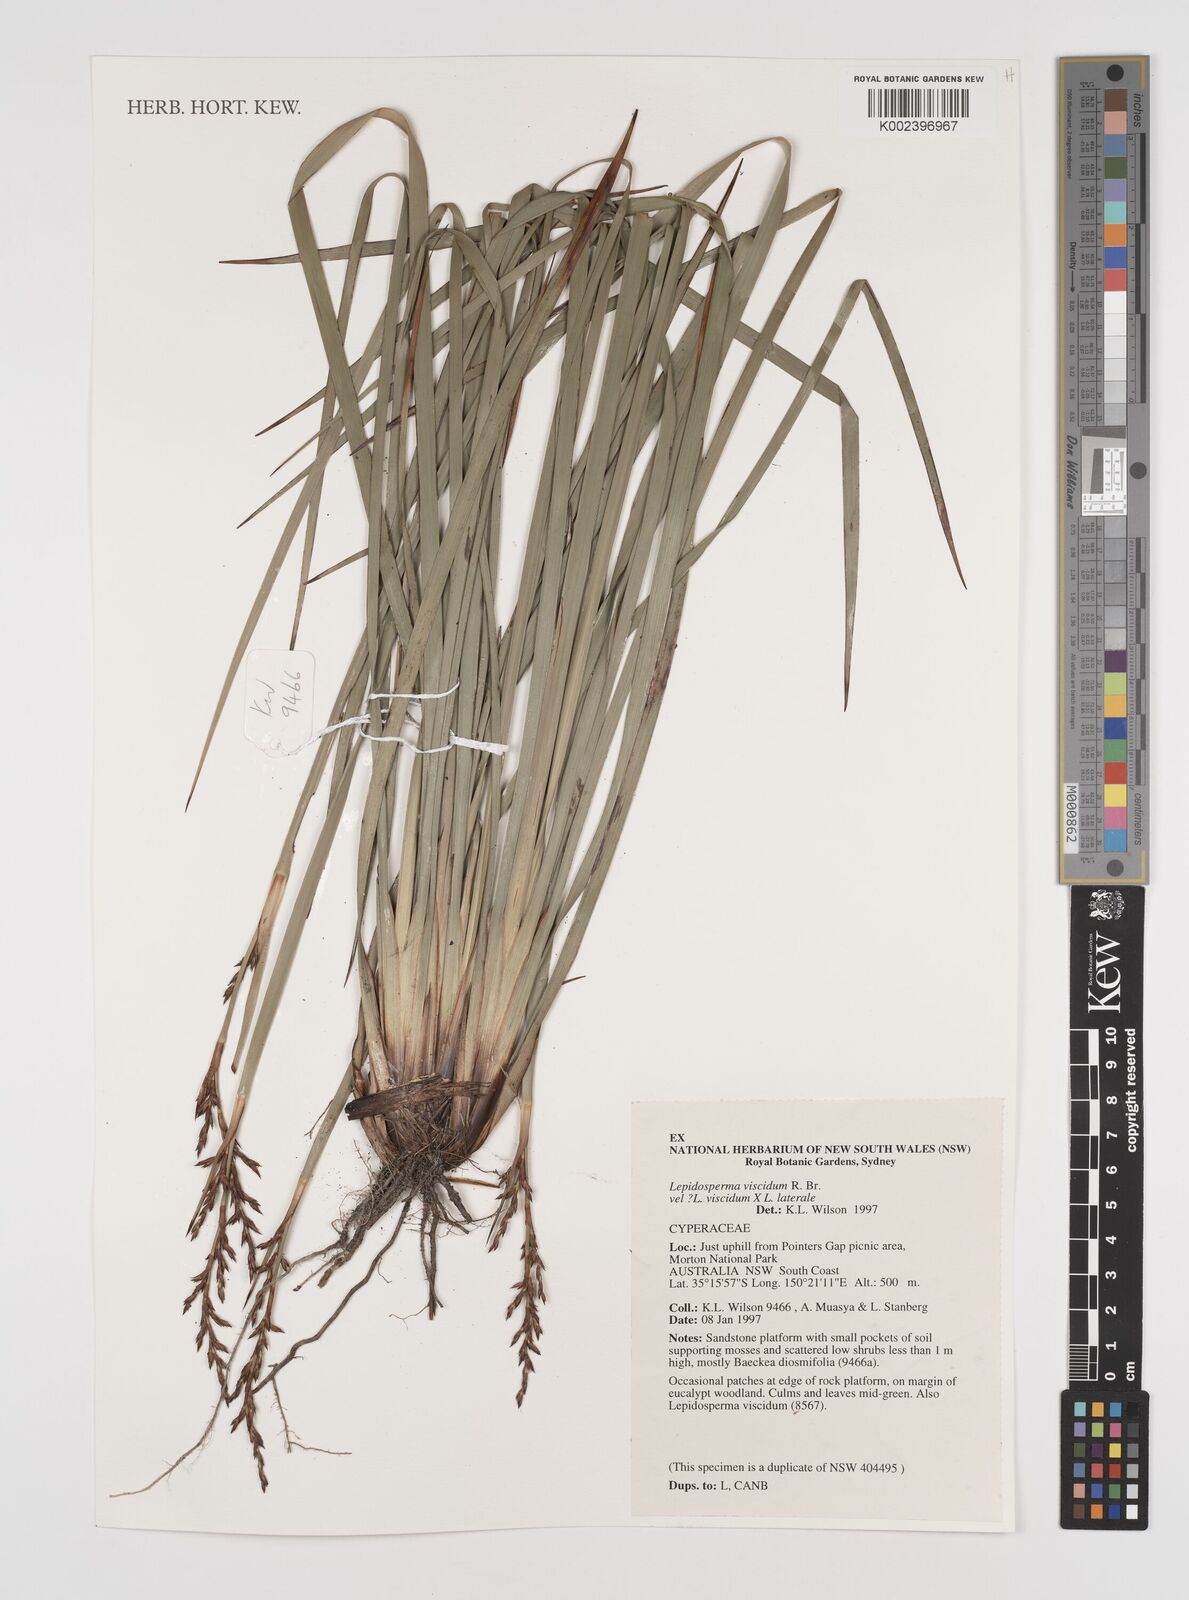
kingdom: Plantae
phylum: Tracheophyta
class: Liliopsida
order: Poales
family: Cyperaceae
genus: Lepidosperma
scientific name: Lepidosperma viscidum
